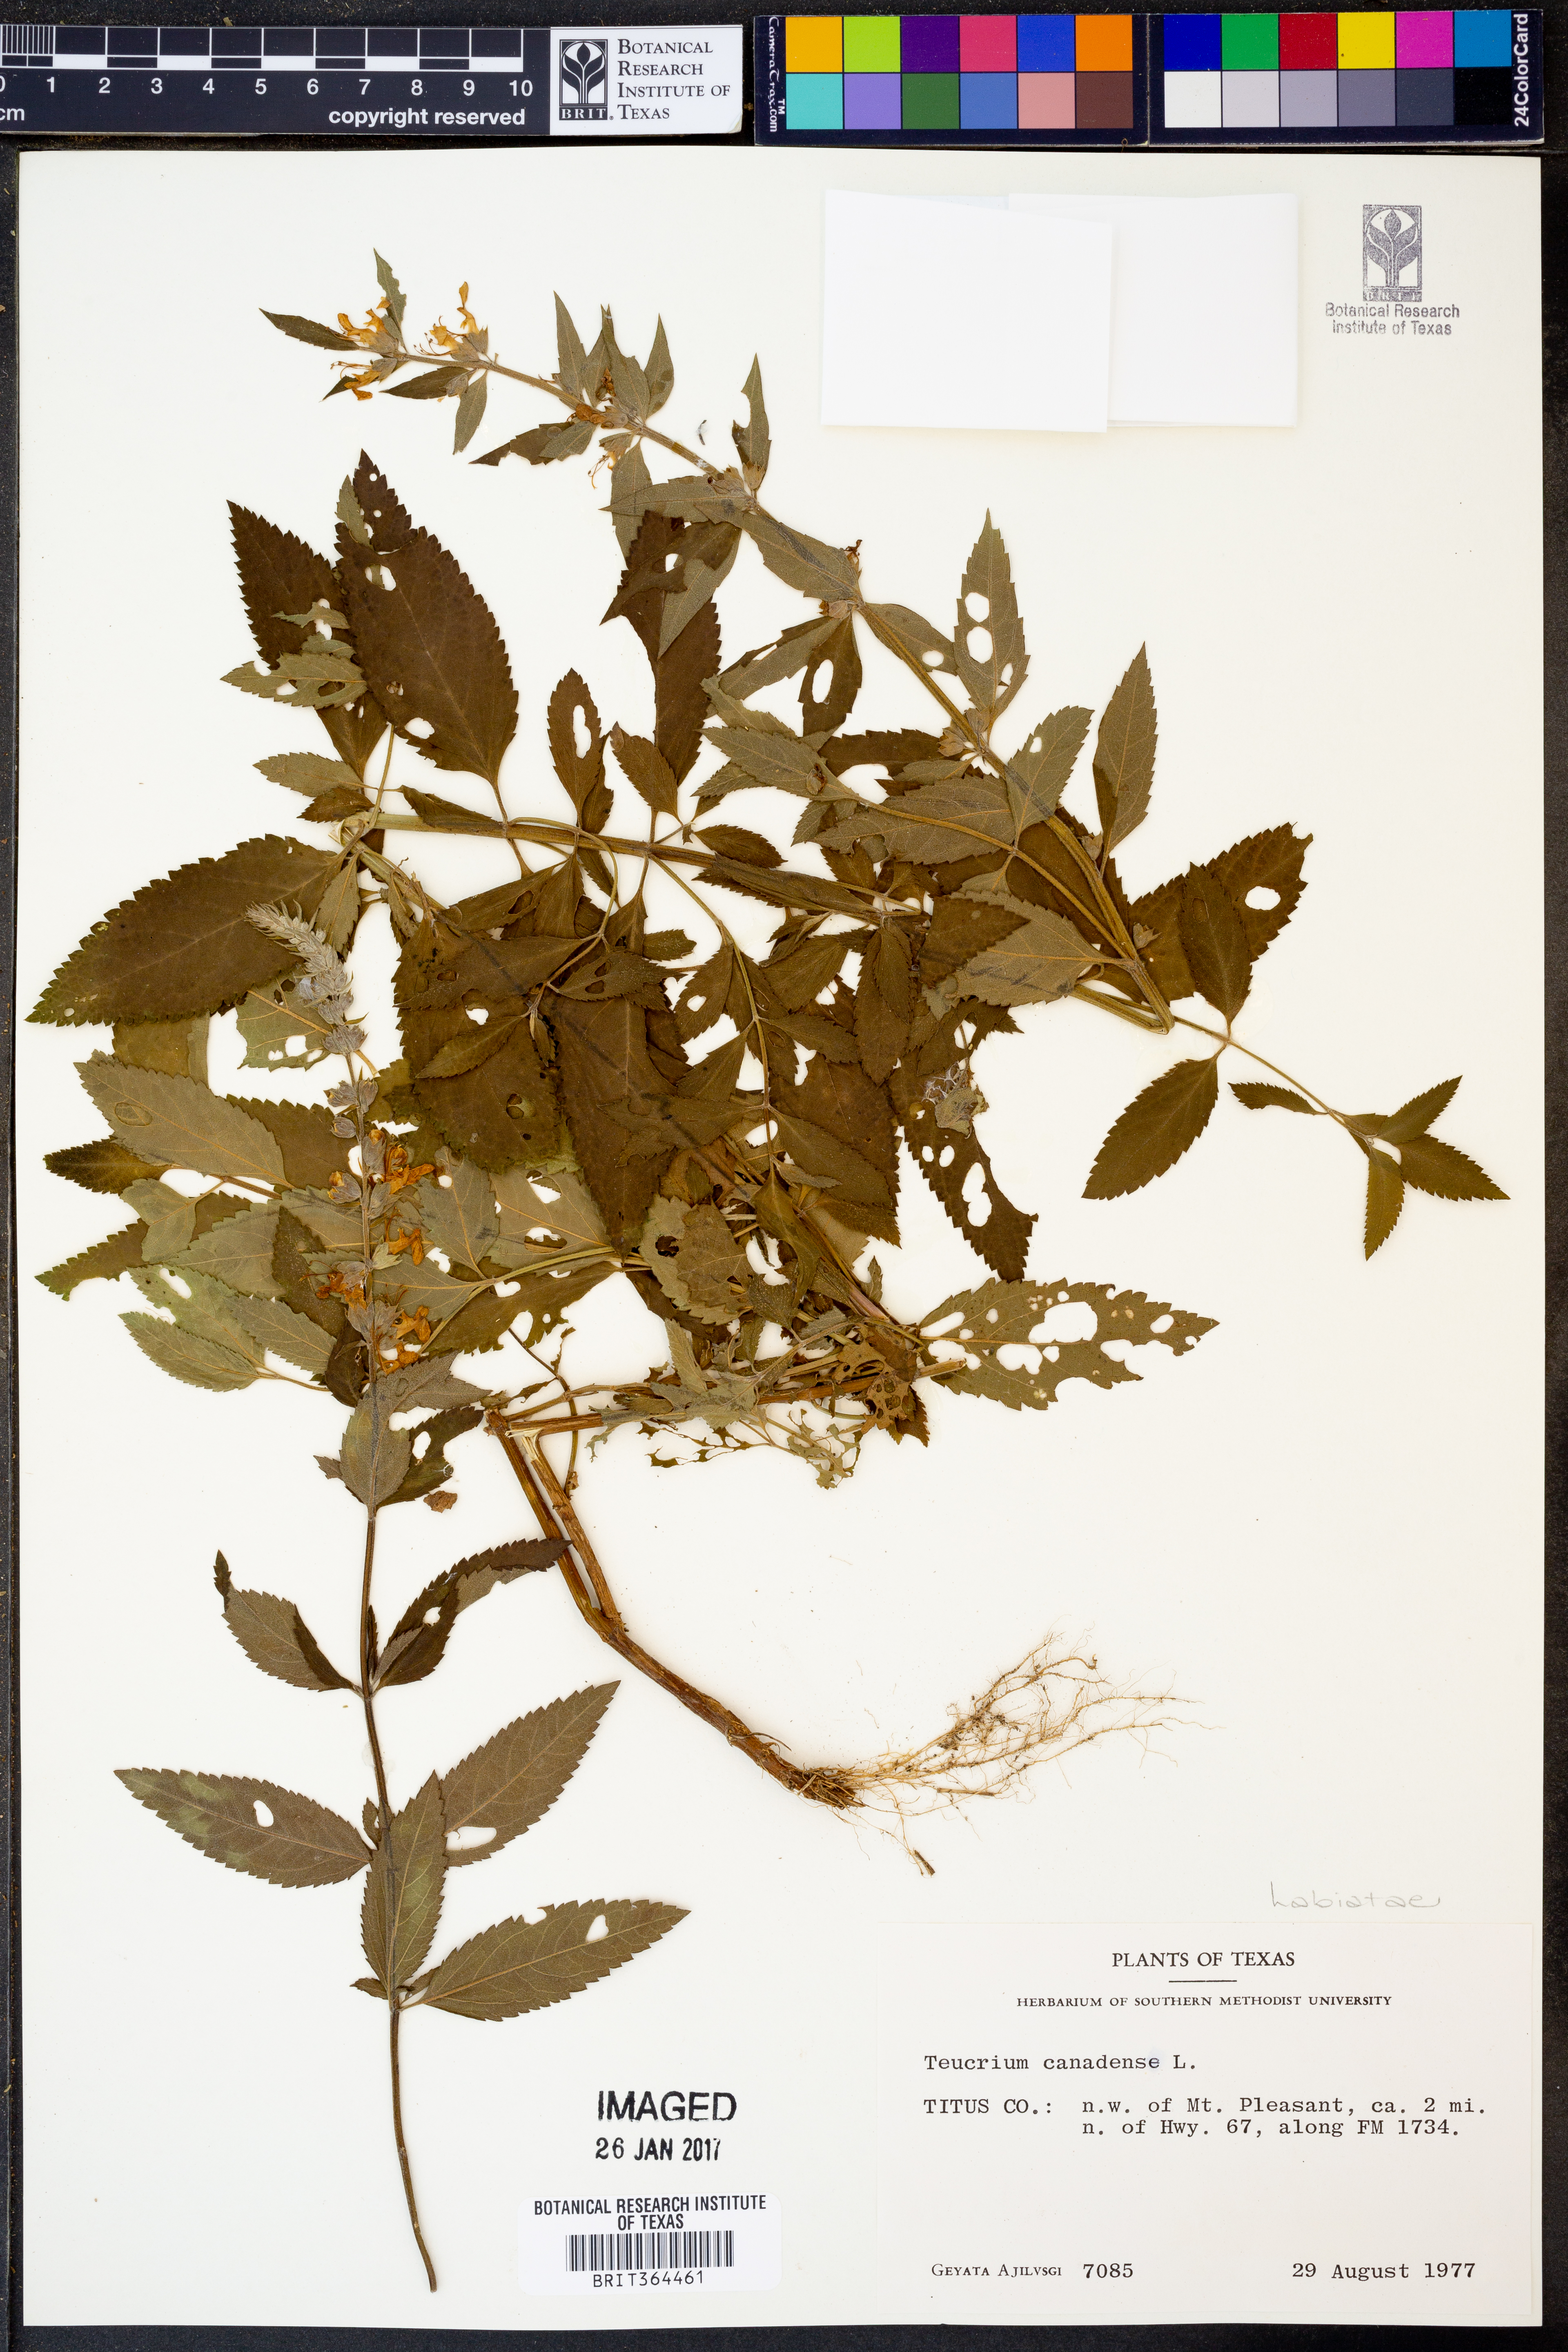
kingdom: Plantae
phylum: Tracheophyta
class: Magnoliopsida
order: Lamiales
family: Lamiaceae
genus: Teucrium
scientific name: Teucrium canadense
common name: American germander
